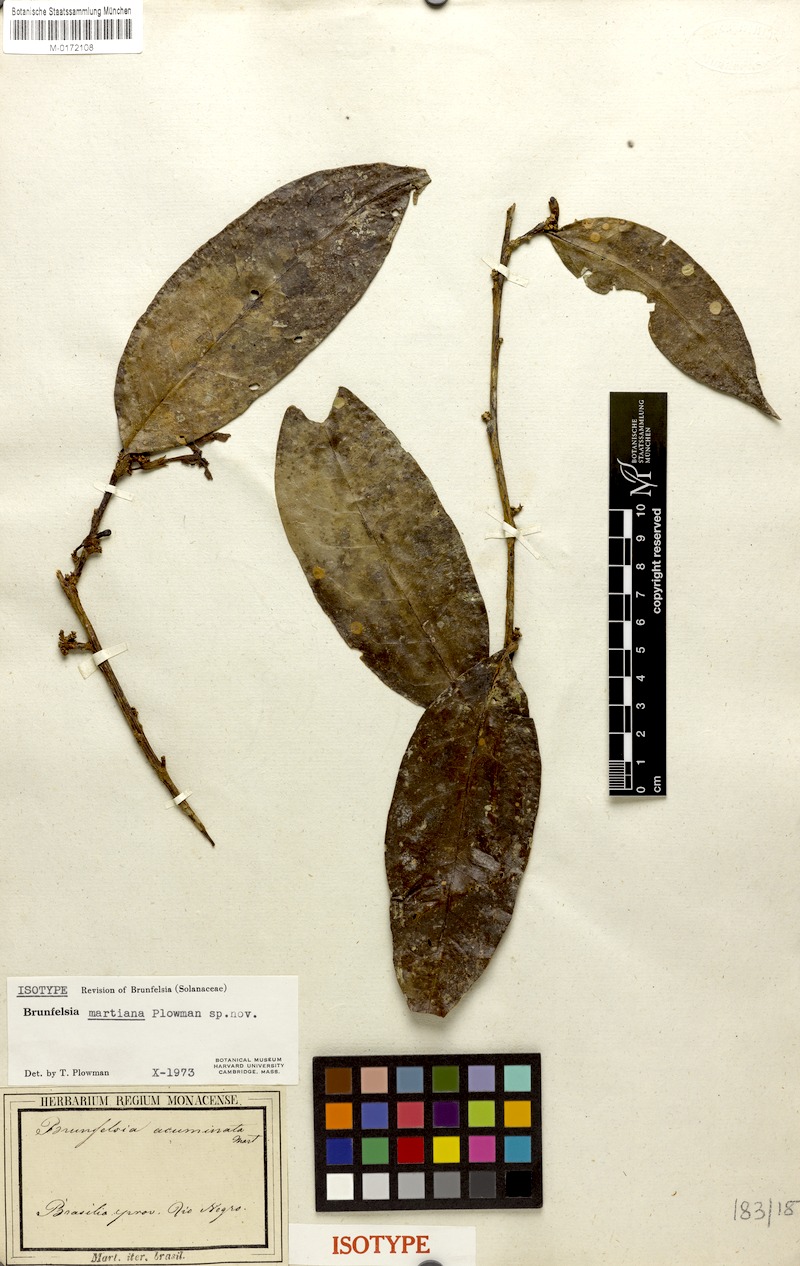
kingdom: Plantae
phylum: Tracheophyta
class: Magnoliopsida
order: Solanales
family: Solanaceae
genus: Brunfelsia
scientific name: Brunfelsia martiana
